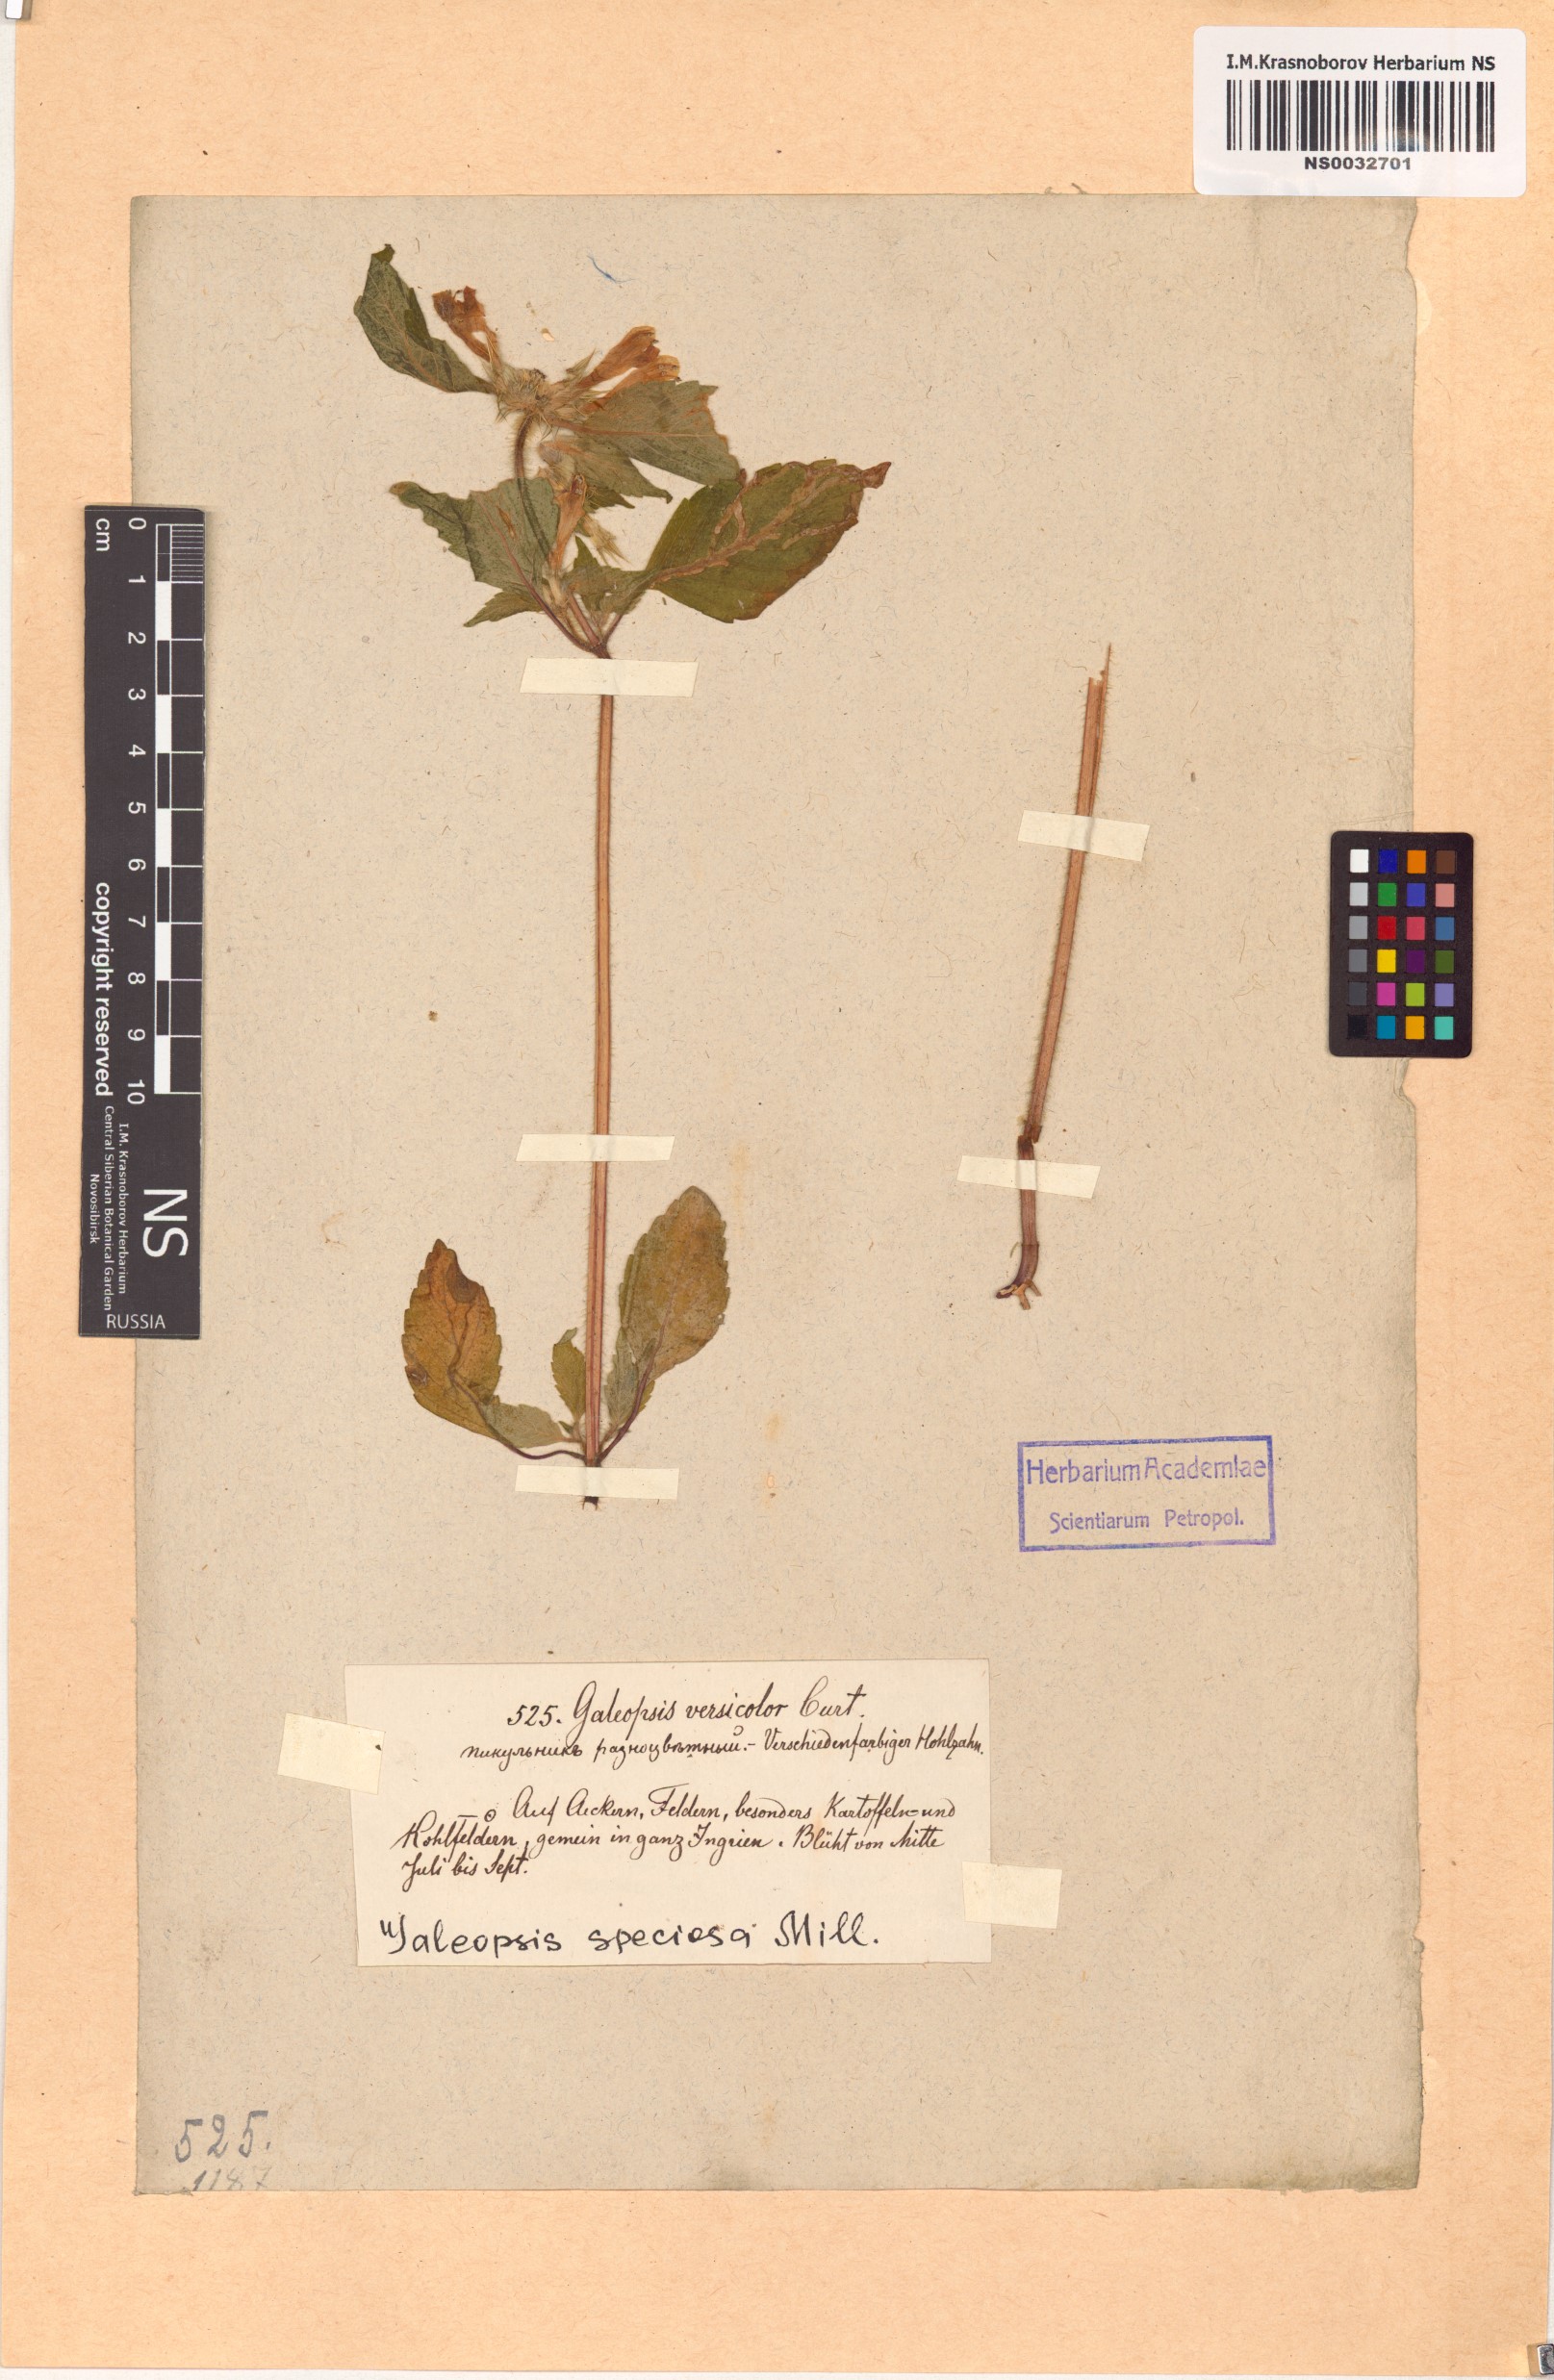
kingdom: Plantae
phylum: Tracheophyta
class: Magnoliopsida
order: Lamiales
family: Lamiaceae
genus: Galeopsis
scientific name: Galeopsis speciosa
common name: Large-flowered hemp-nettle
